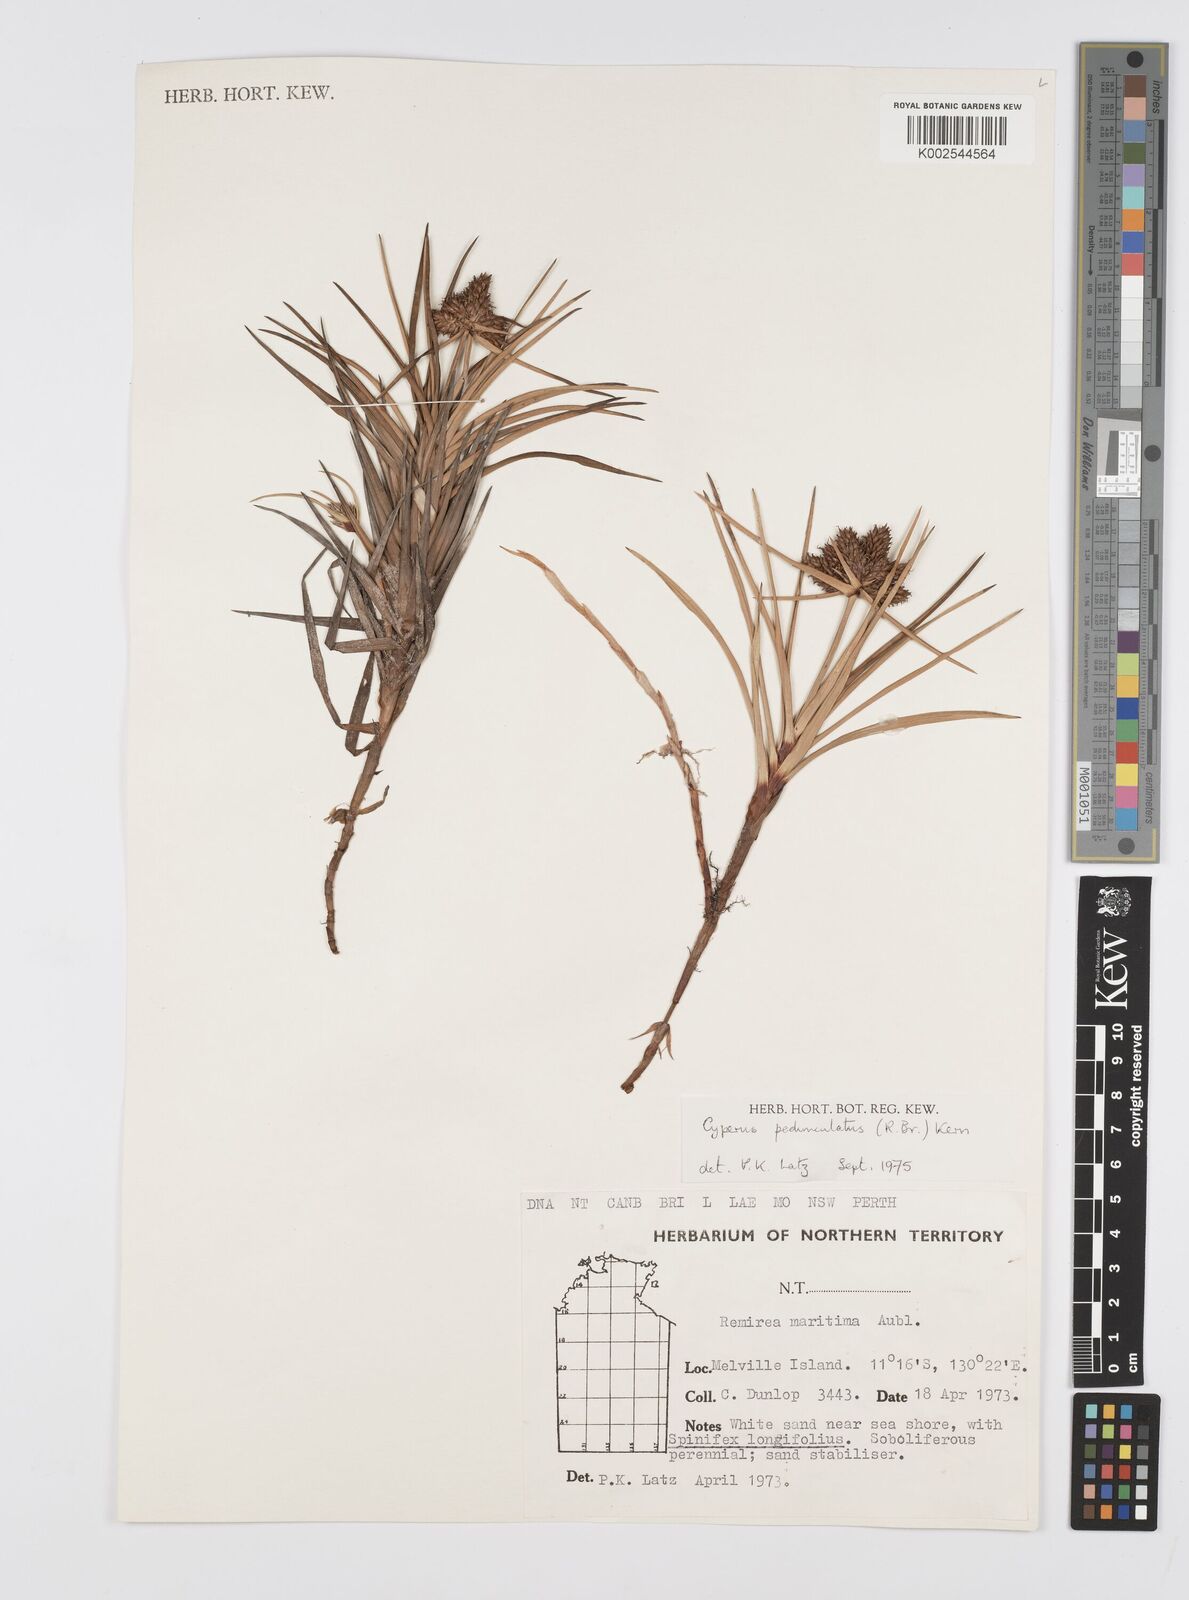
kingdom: Plantae
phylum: Tracheophyta
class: Liliopsida
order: Poales
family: Cyperaceae
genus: Cyperus
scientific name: Cyperus
